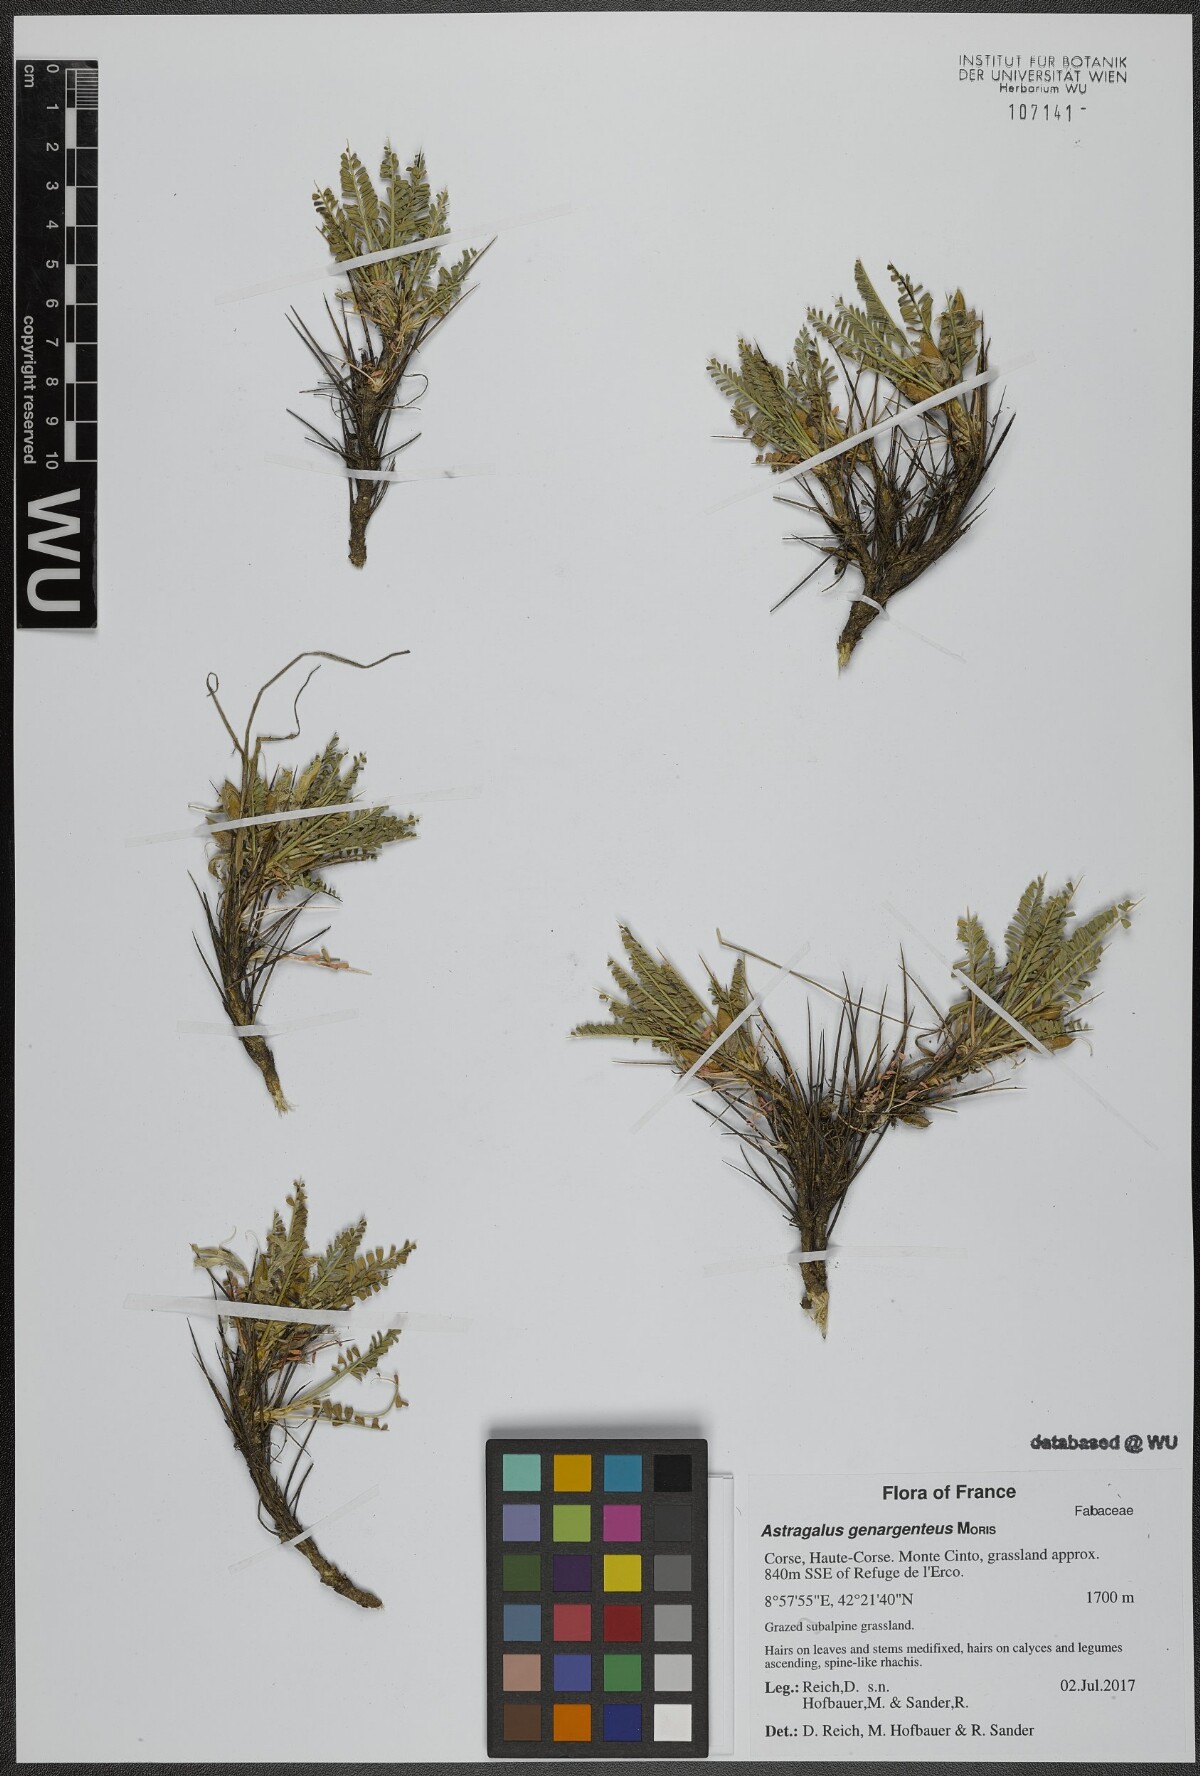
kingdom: Plantae
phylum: Tracheophyta
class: Magnoliopsida
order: Fabales
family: Fabaceae
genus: Astragalus
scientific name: Astragalus genargenteus
